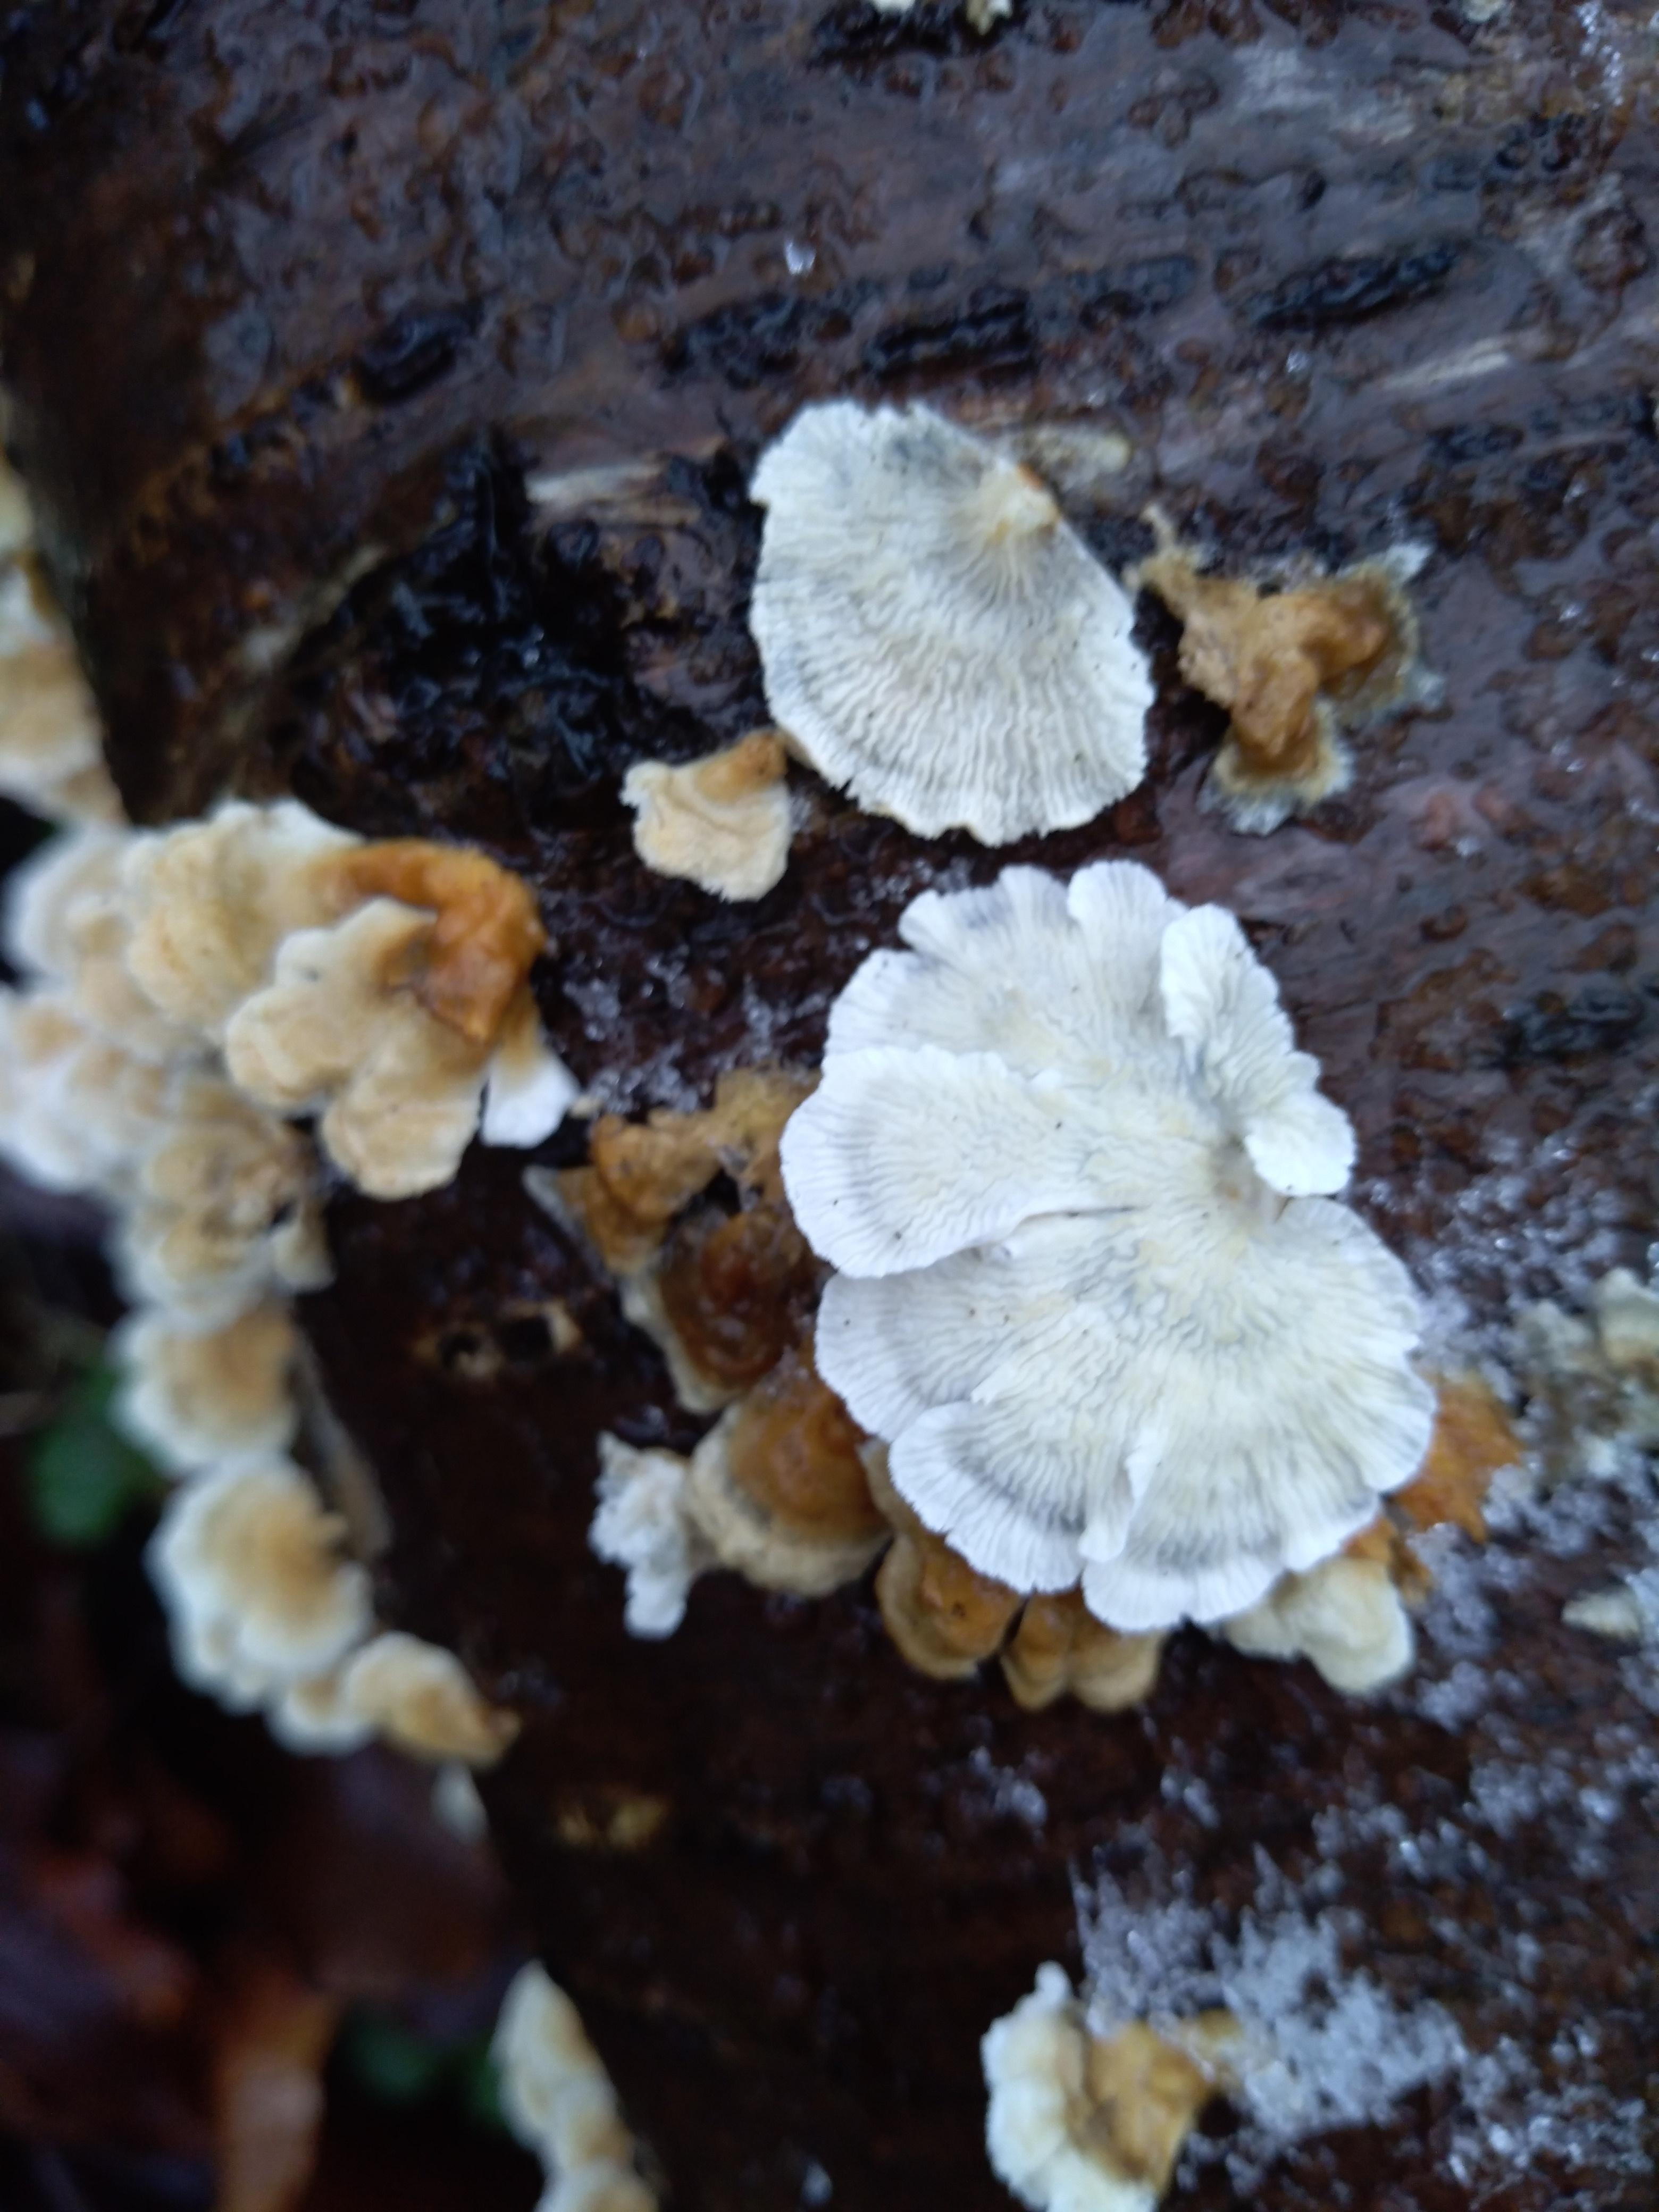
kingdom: Fungi
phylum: Basidiomycota
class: Agaricomycetes
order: Amylocorticiales
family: Amylocorticiaceae
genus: Plicaturopsis
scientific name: Plicaturopsis crispa
